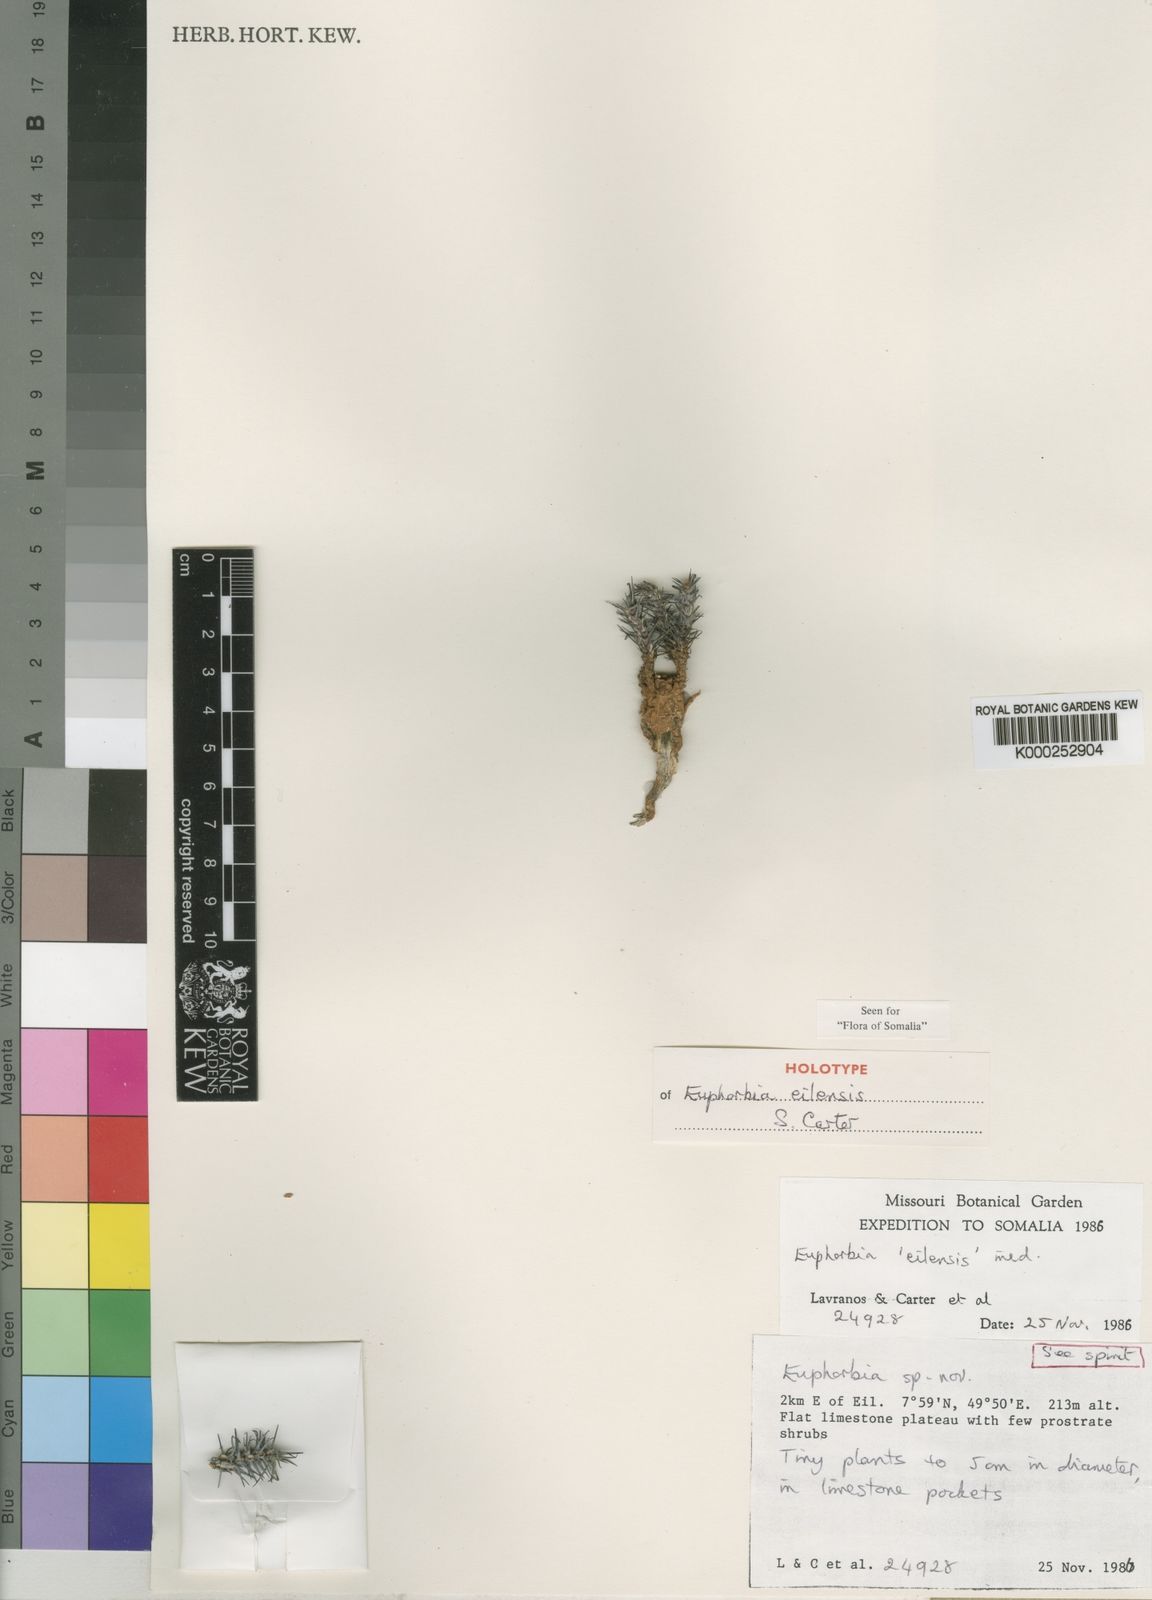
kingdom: Plantae
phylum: Tracheophyta
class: Magnoliopsida
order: Malpighiales
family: Euphorbiaceae
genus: Euphorbia
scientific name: Euphorbia eilensis
